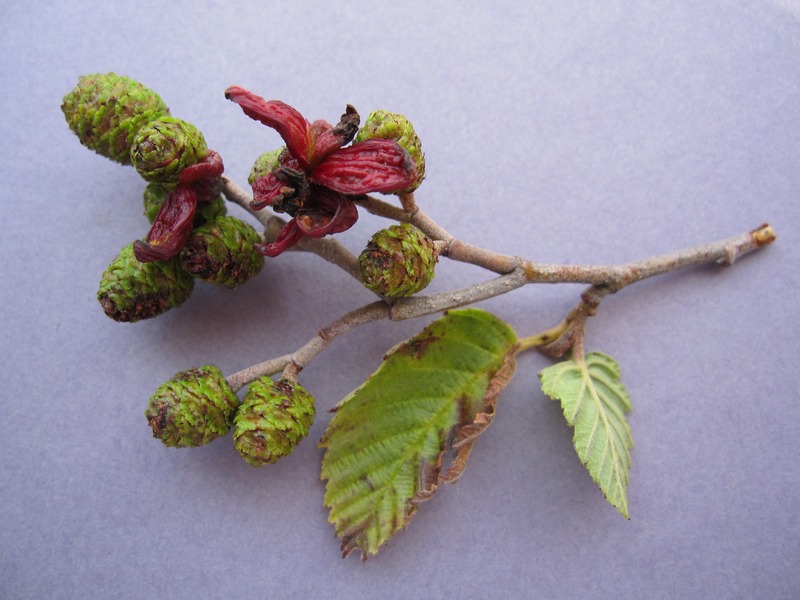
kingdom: Fungi
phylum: Ascomycota
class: Taphrinomycetes
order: Taphrinales
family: Taphrinaceae
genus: Taphrina
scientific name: Taphrina alni
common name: Alder tongue
